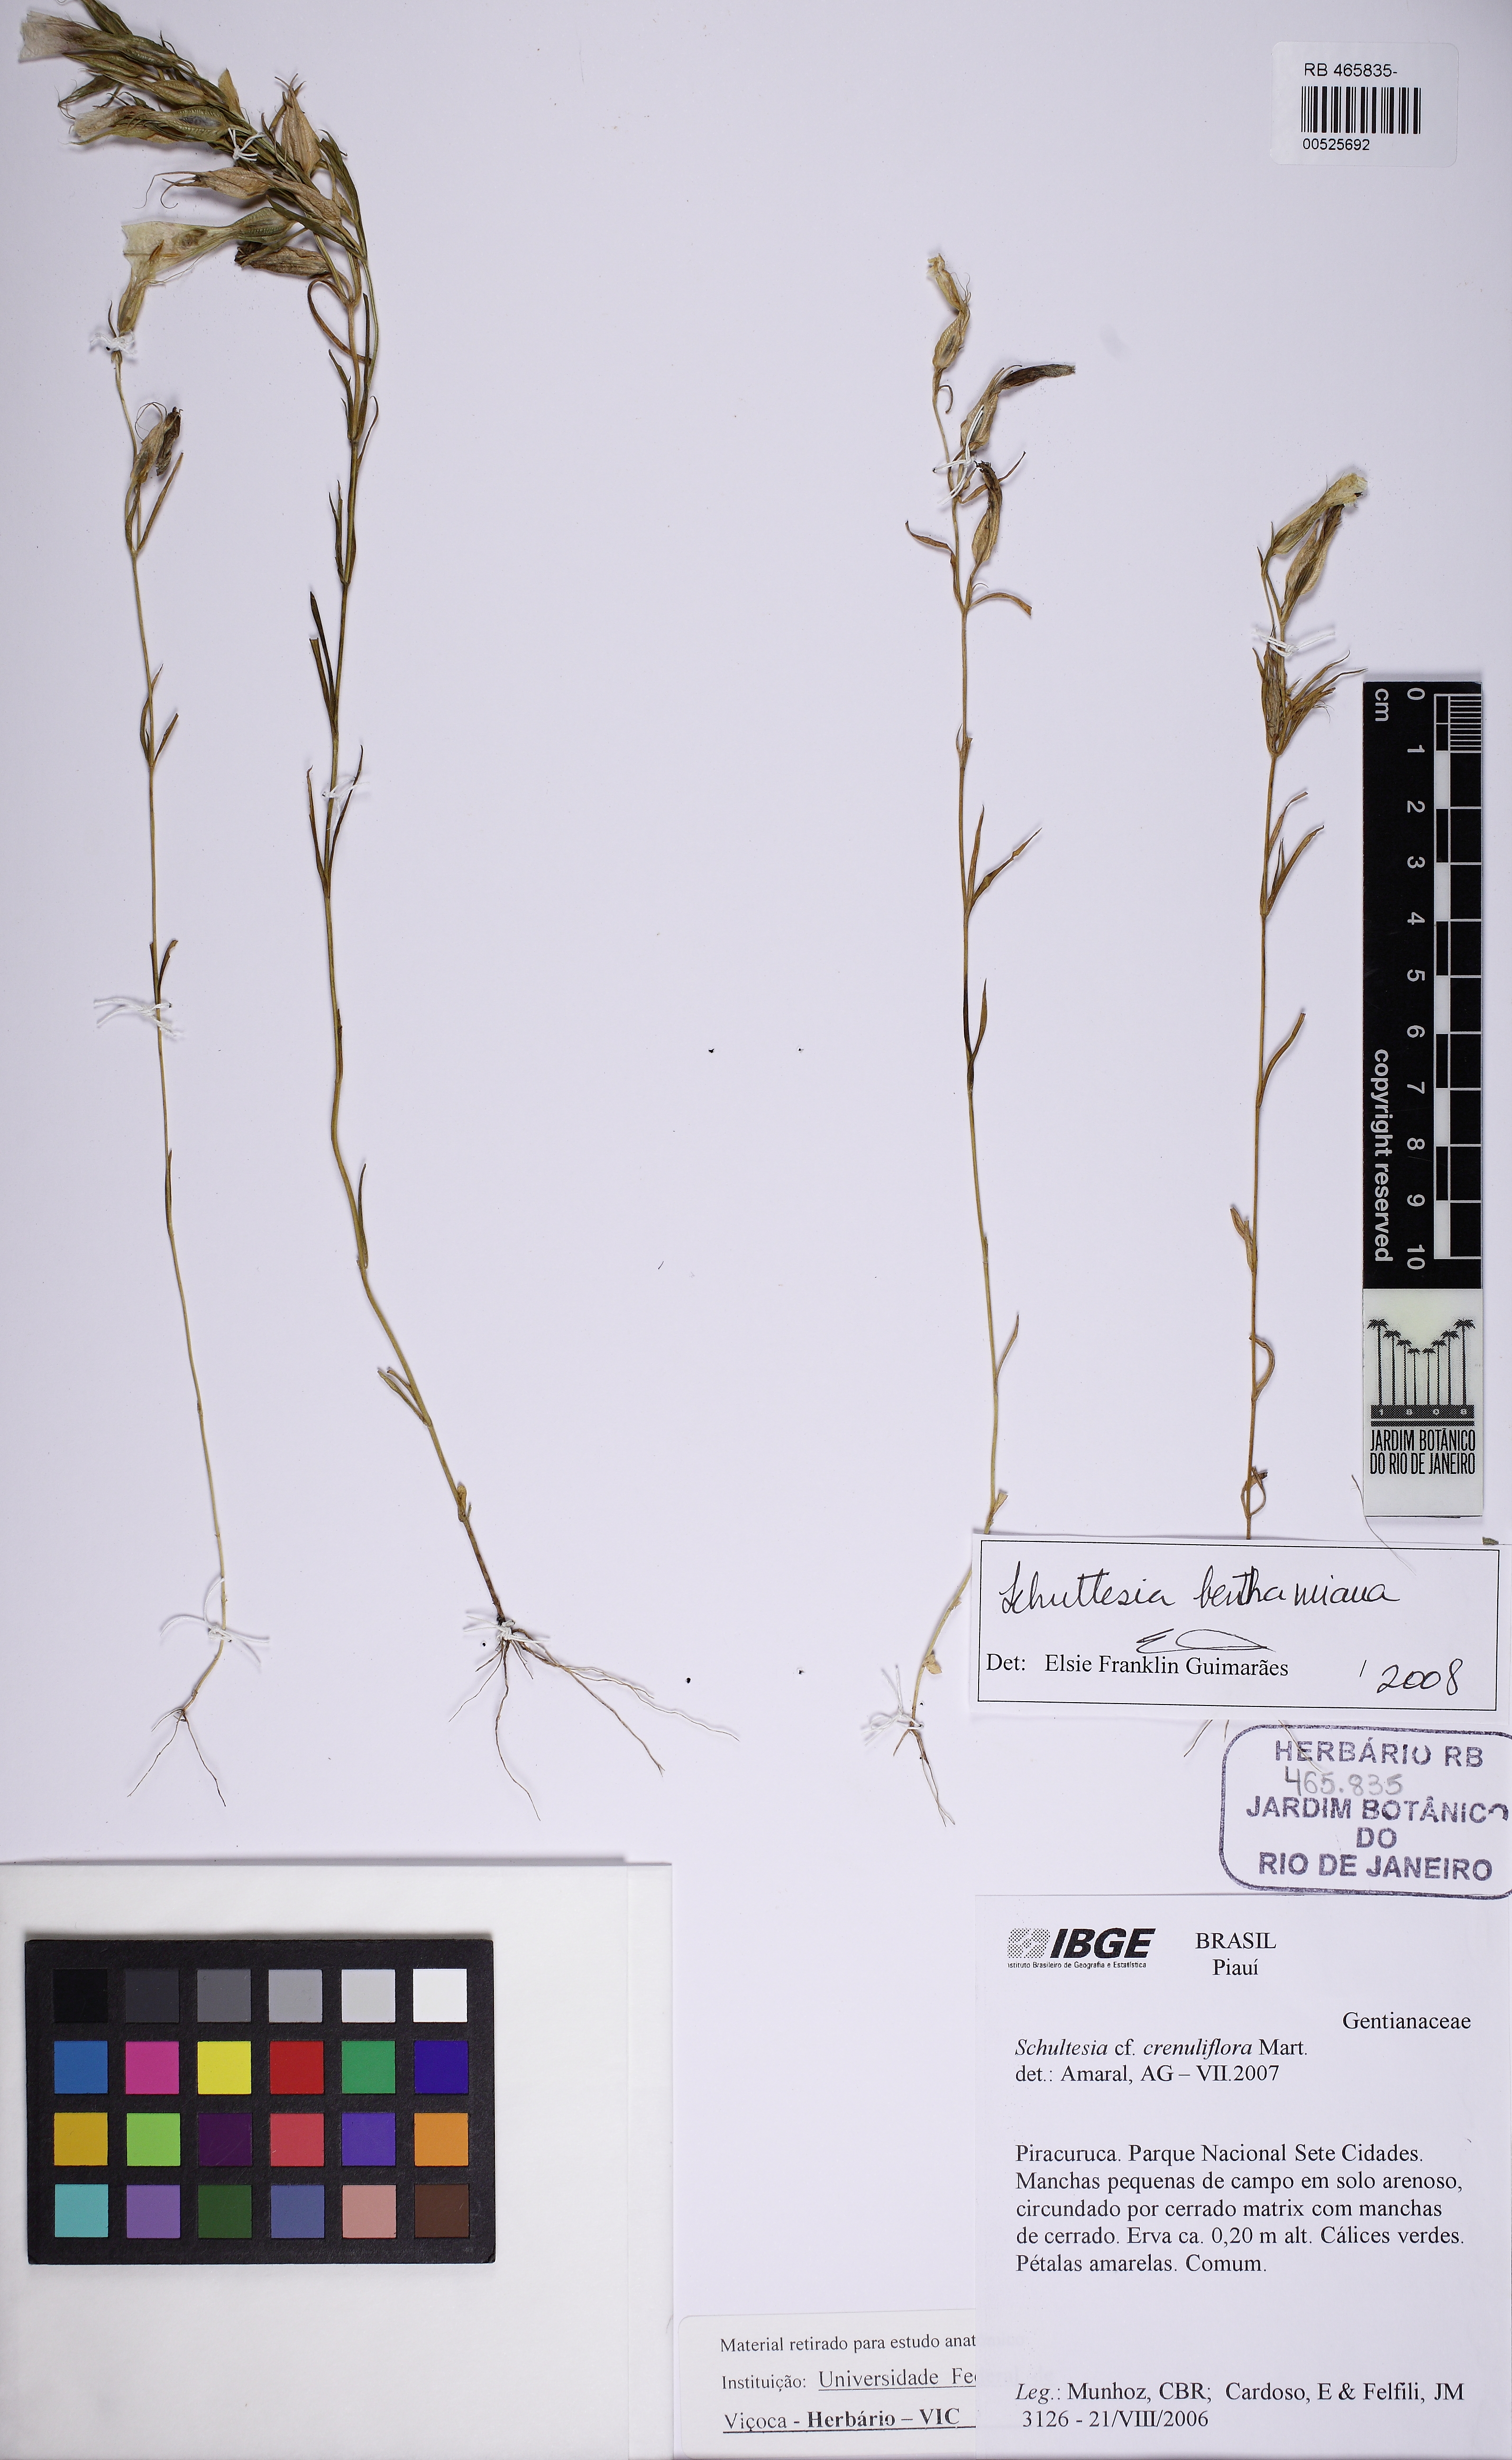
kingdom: Plantae
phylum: Tracheophyta
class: Magnoliopsida
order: Gentianales
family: Gentianaceae
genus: Schultesia
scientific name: Schultesia benthamiana
